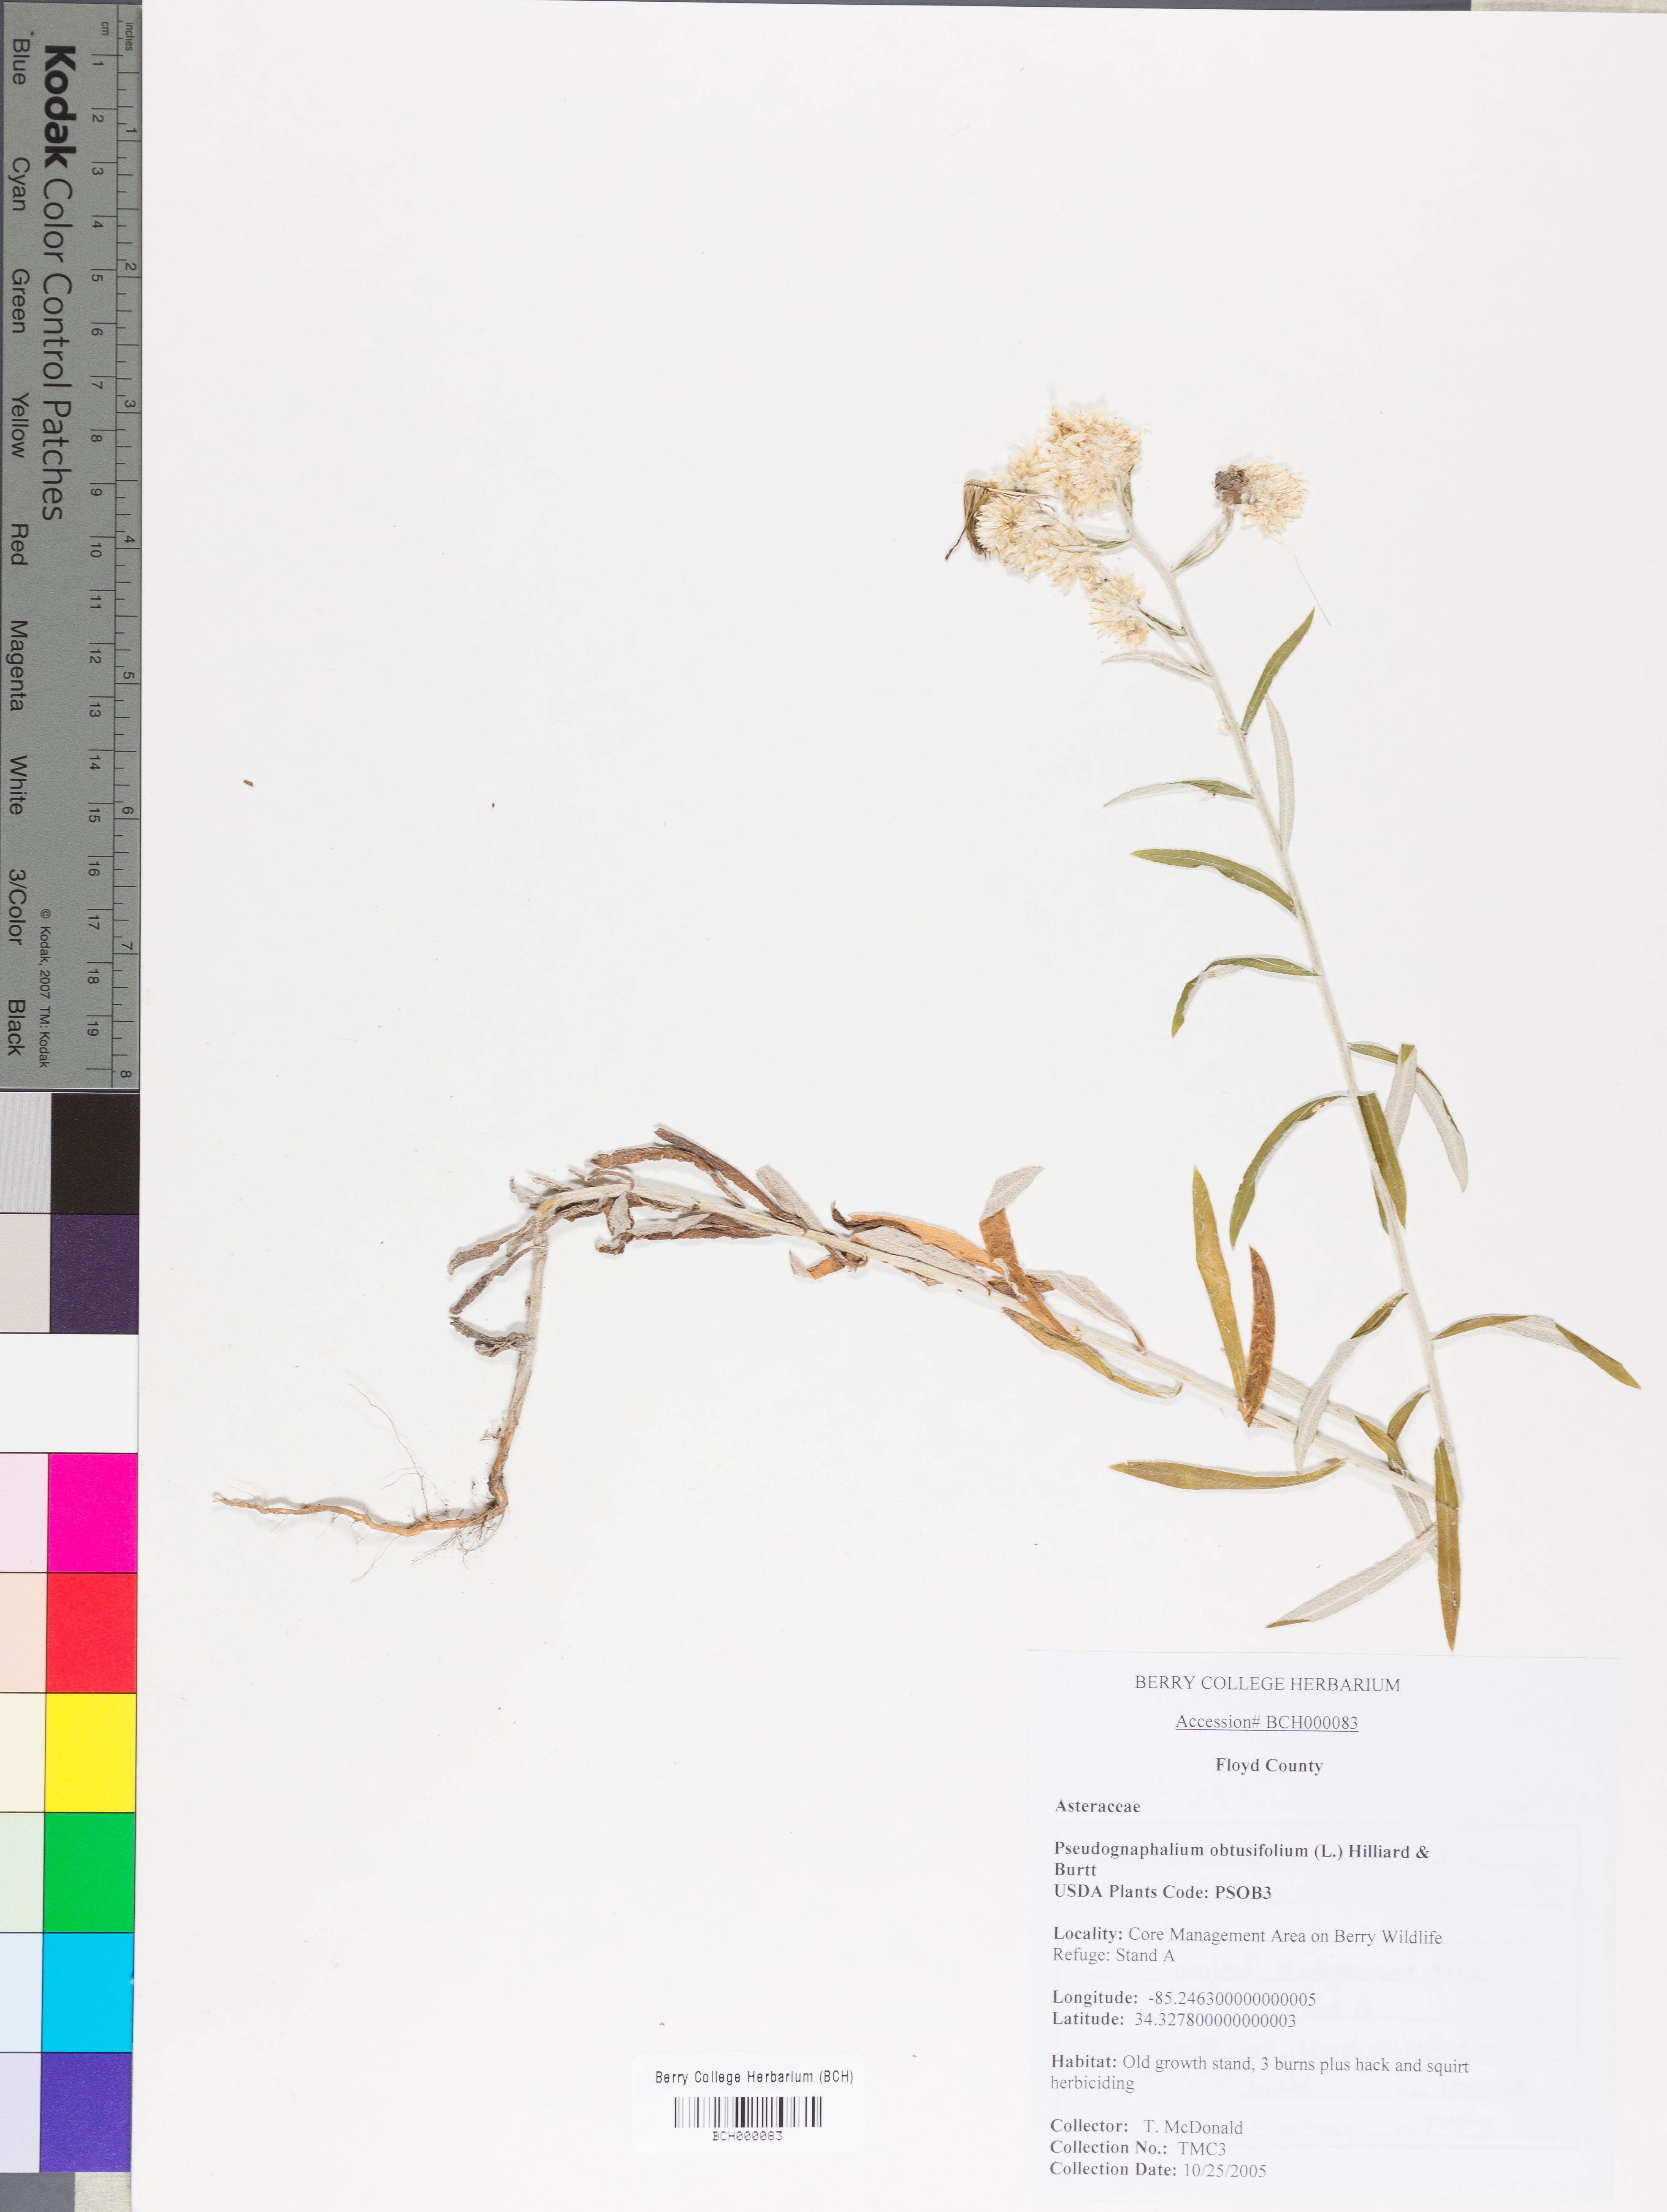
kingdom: Plantae
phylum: Tracheophyta
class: Magnoliopsida
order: Asterales
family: Asteraceae
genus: Pseudognaphalium
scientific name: Pseudognaphalium obtusifolium
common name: Eastern rabbit-tobacco
